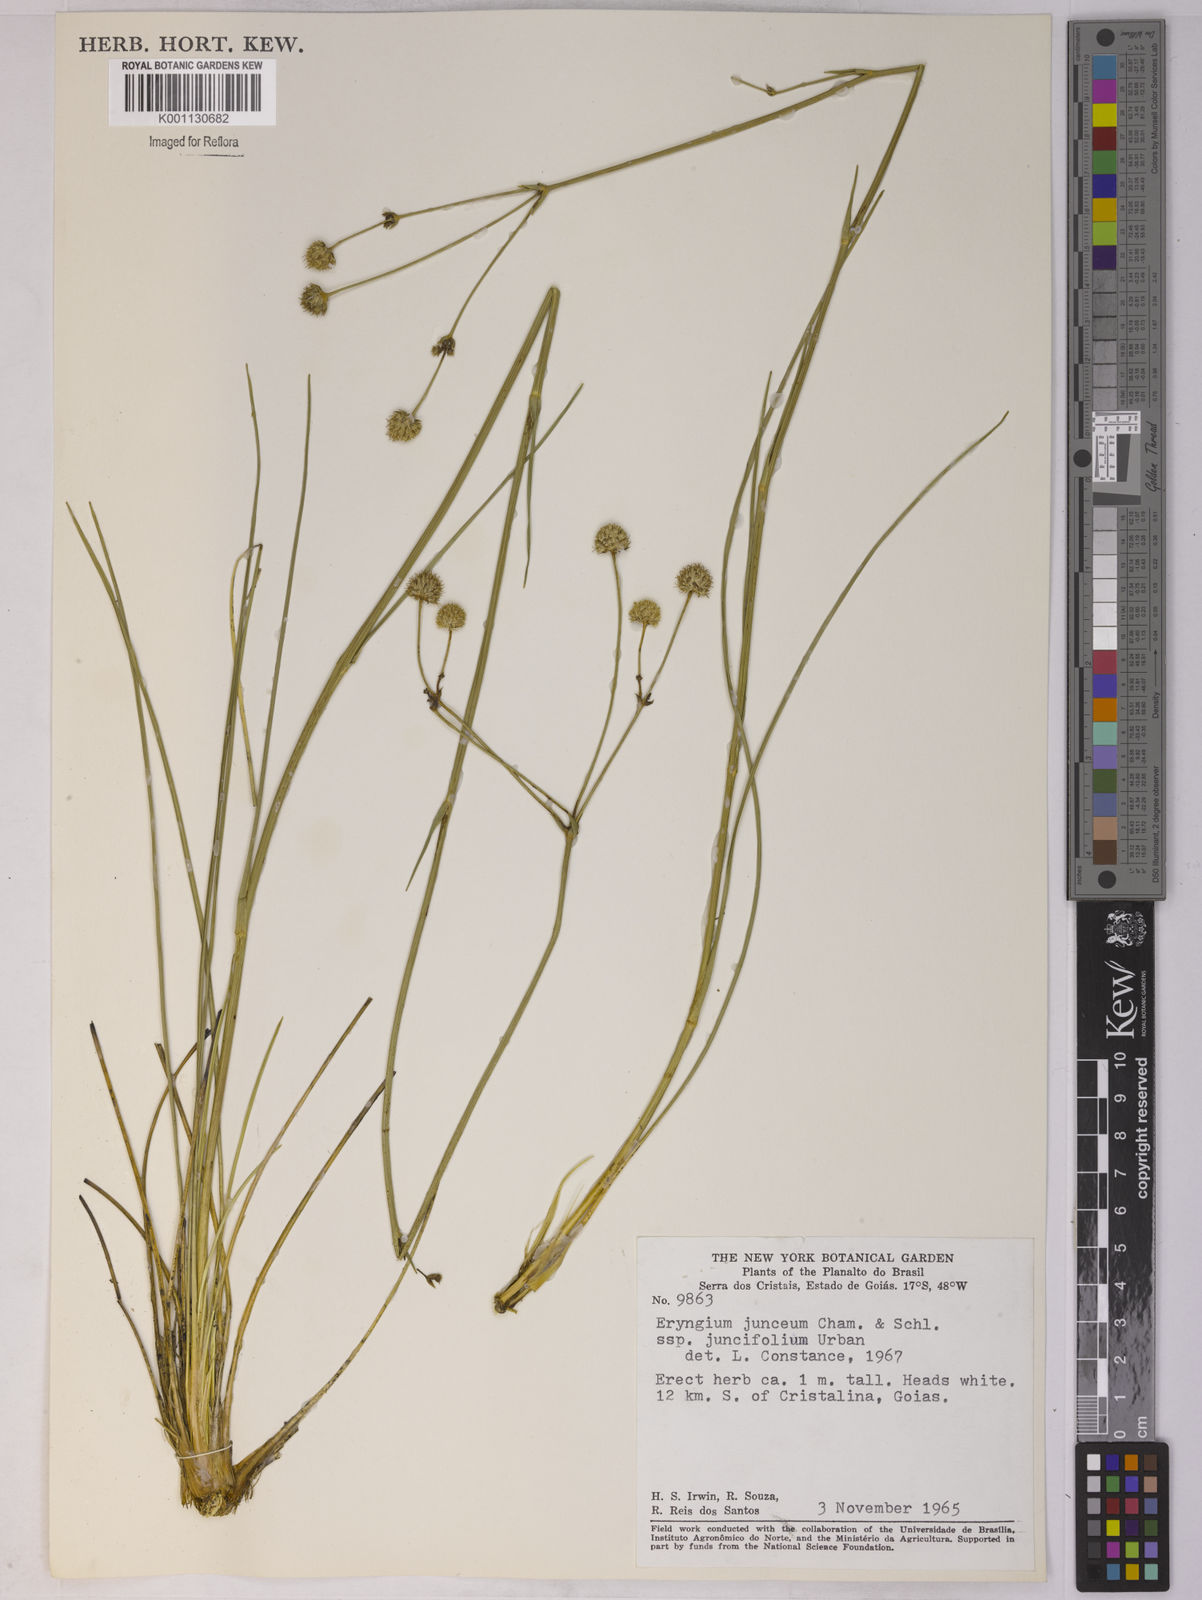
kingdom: Plantae
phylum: Tracheophyta
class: Magnoliopsida
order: Apiales
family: Apiaceae
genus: Eryngium
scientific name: Eryngium juncifolium
